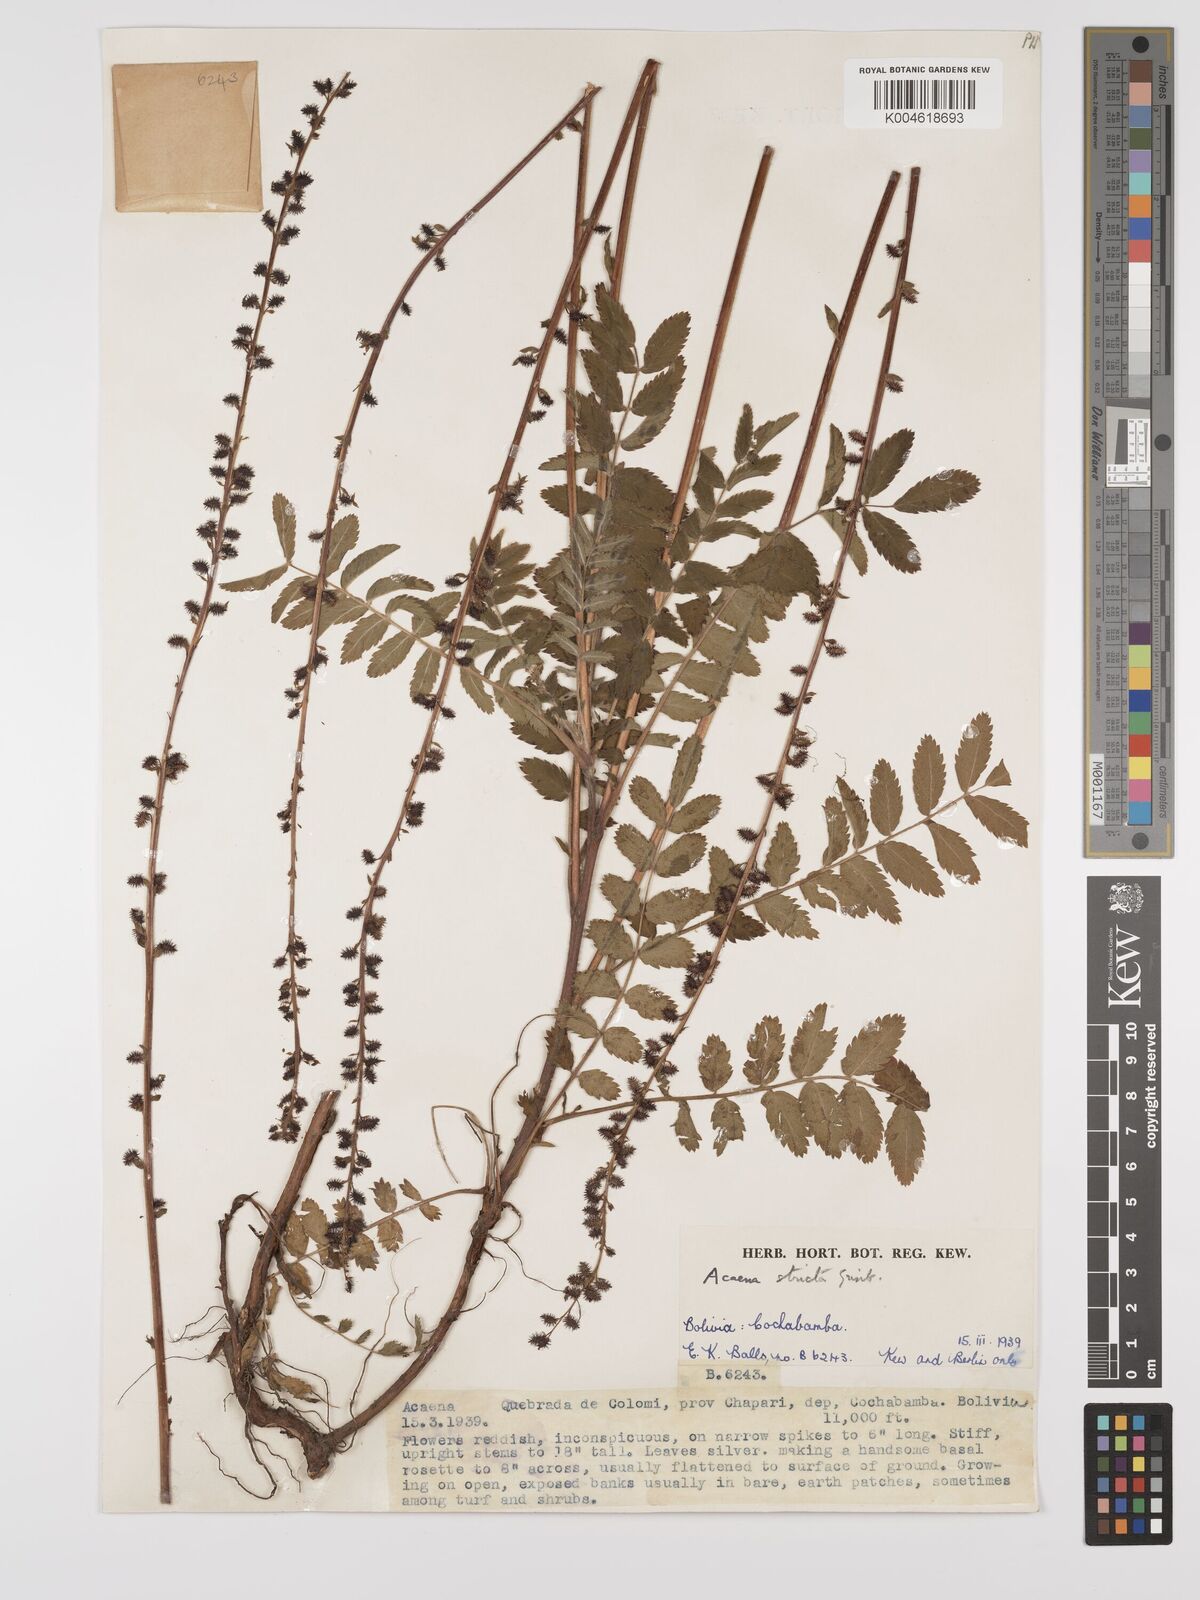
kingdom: Plantae
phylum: Tracheophyta
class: Magnoliopsida
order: Rosales
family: Rosaceae
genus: Acaena
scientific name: Acaena stricta
